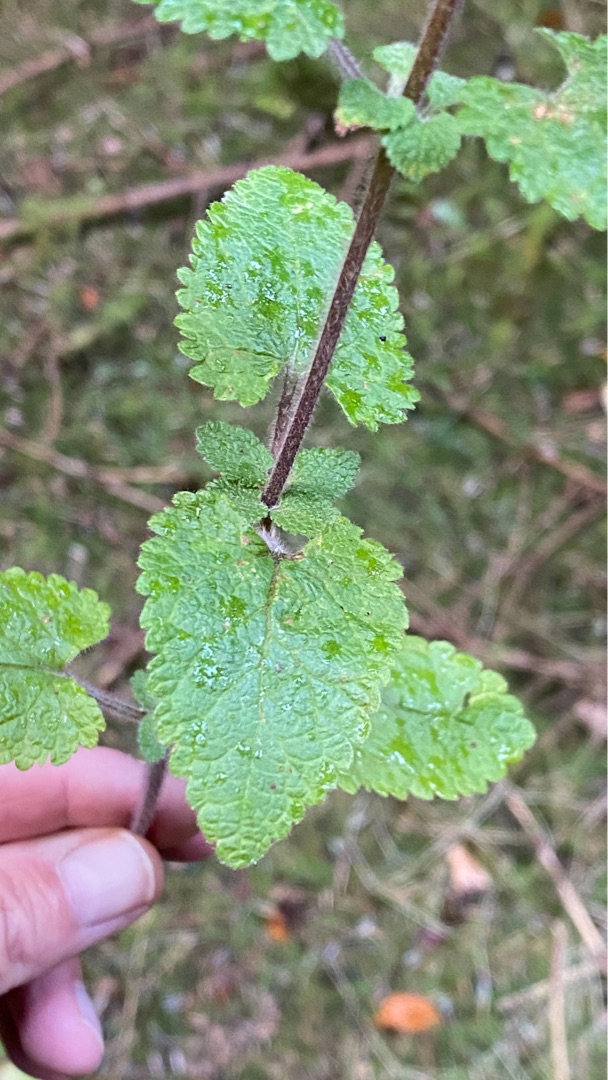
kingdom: Plantae
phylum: Tracheophyta
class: Magnoliopsida
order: Lamiales
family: Lamiaceae
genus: Teucrium
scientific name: Teucrium scorodonia
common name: Klase-kortlæbe
